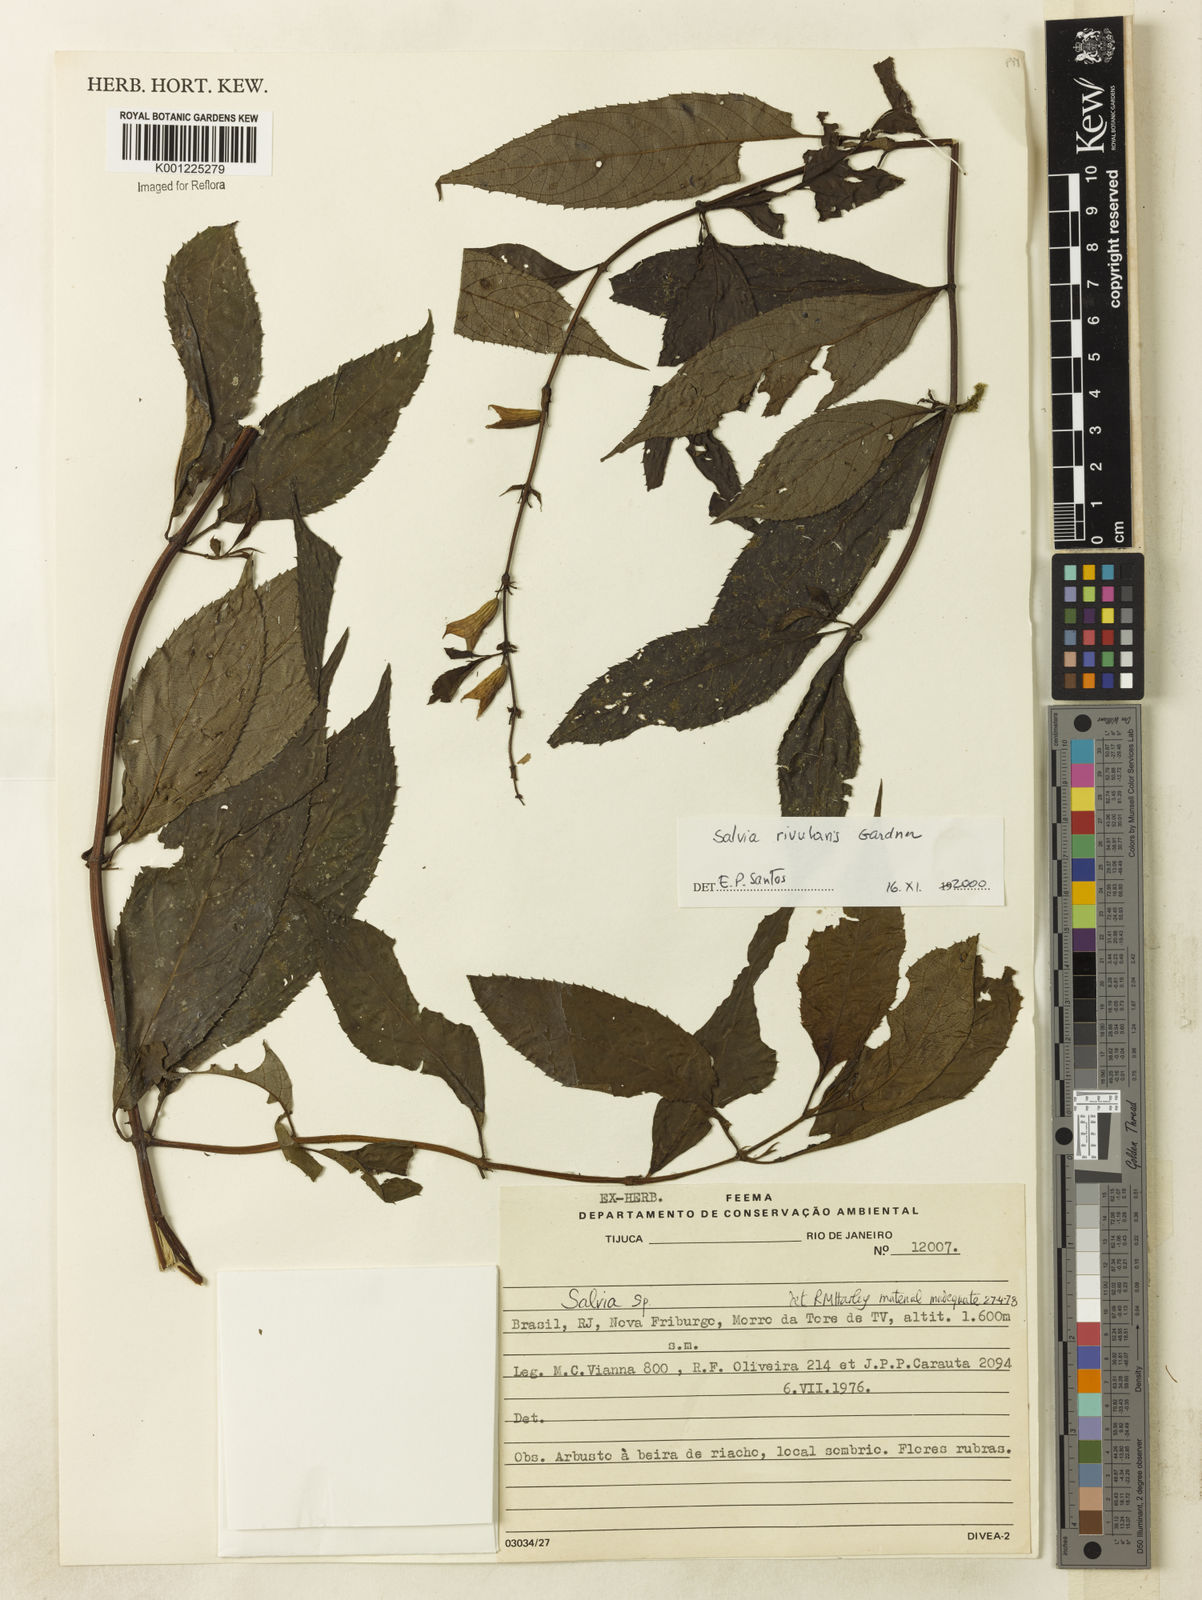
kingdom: Plantae
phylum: Tracheophyta
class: Magnoliopsida
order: Lamiales
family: Lamiaceae
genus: Salvia
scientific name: Salvia rivularis
